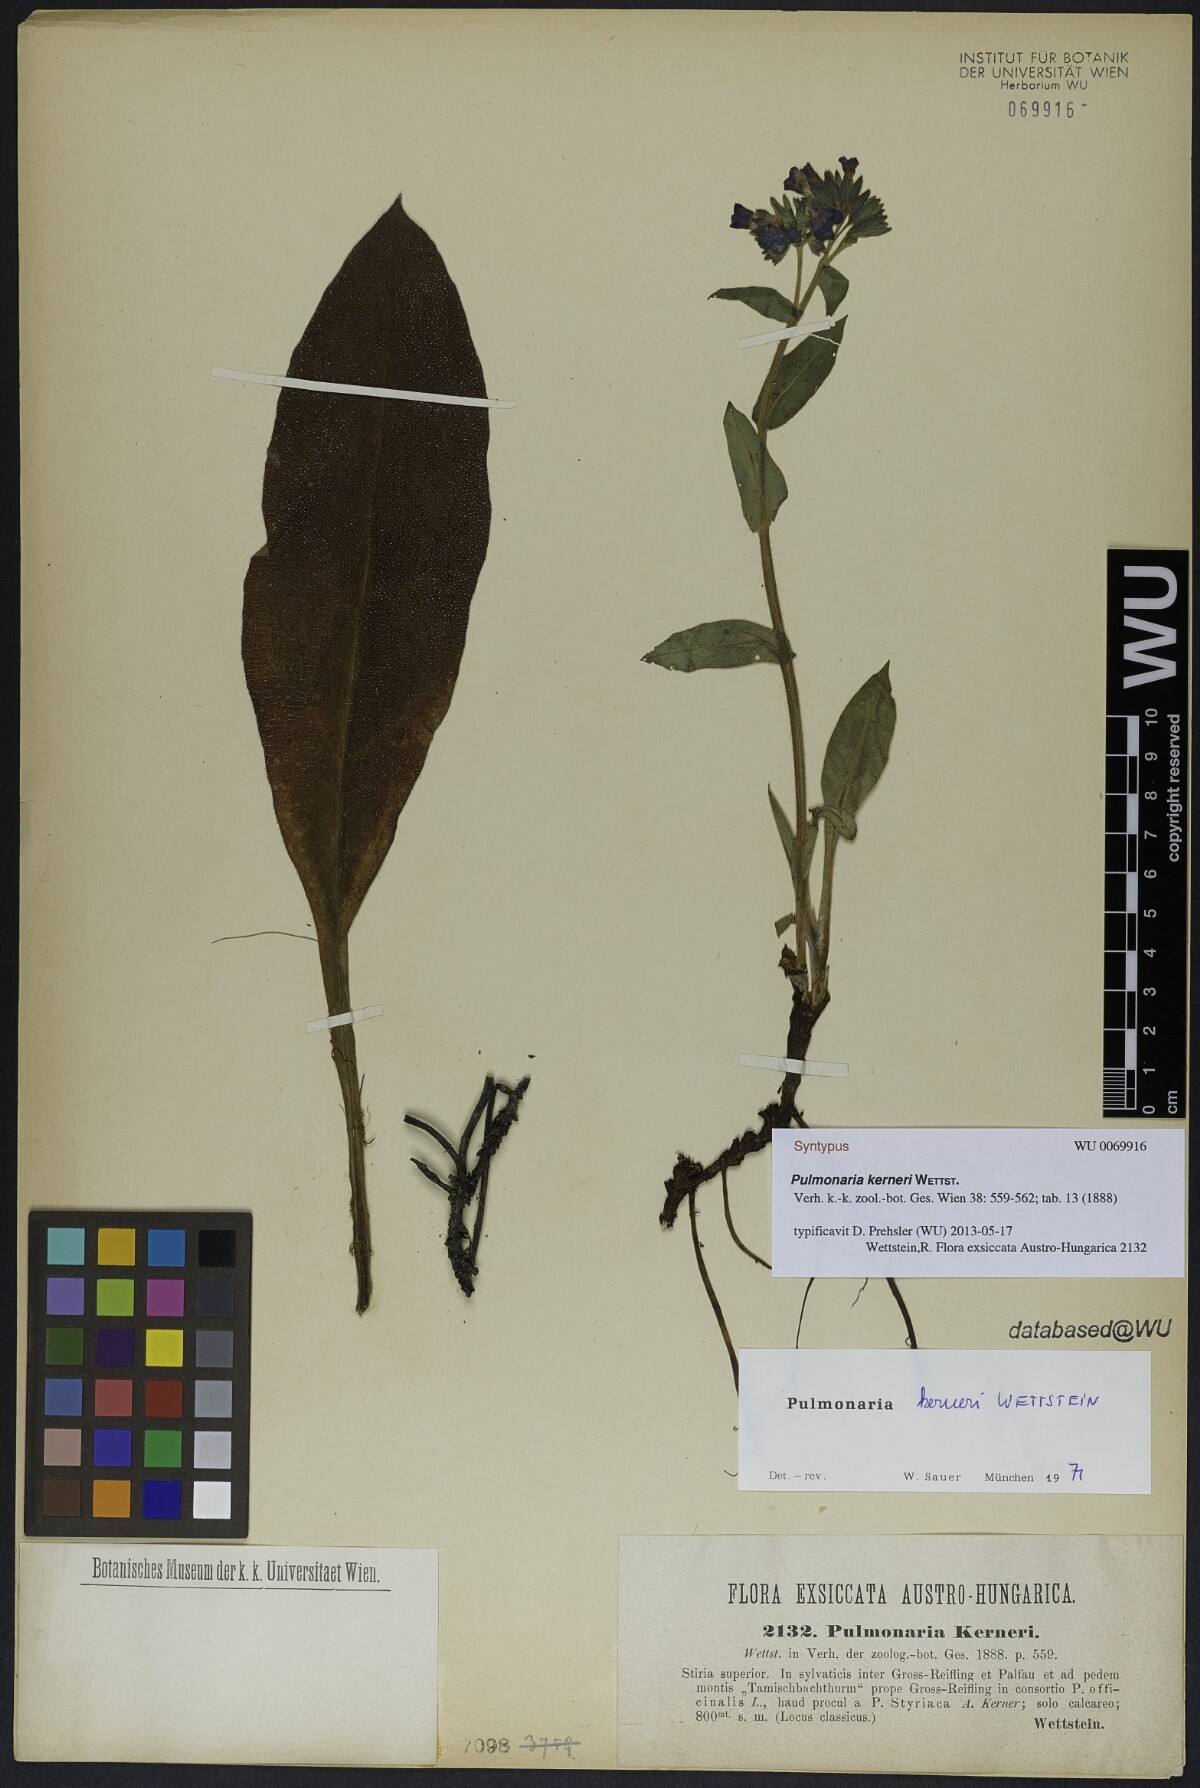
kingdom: Plantae
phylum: Tracheophyta
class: Magnoliopsida
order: Boraginales
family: Boraginaceae
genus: Pulmonaria
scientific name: Pulmonaria kerneri
